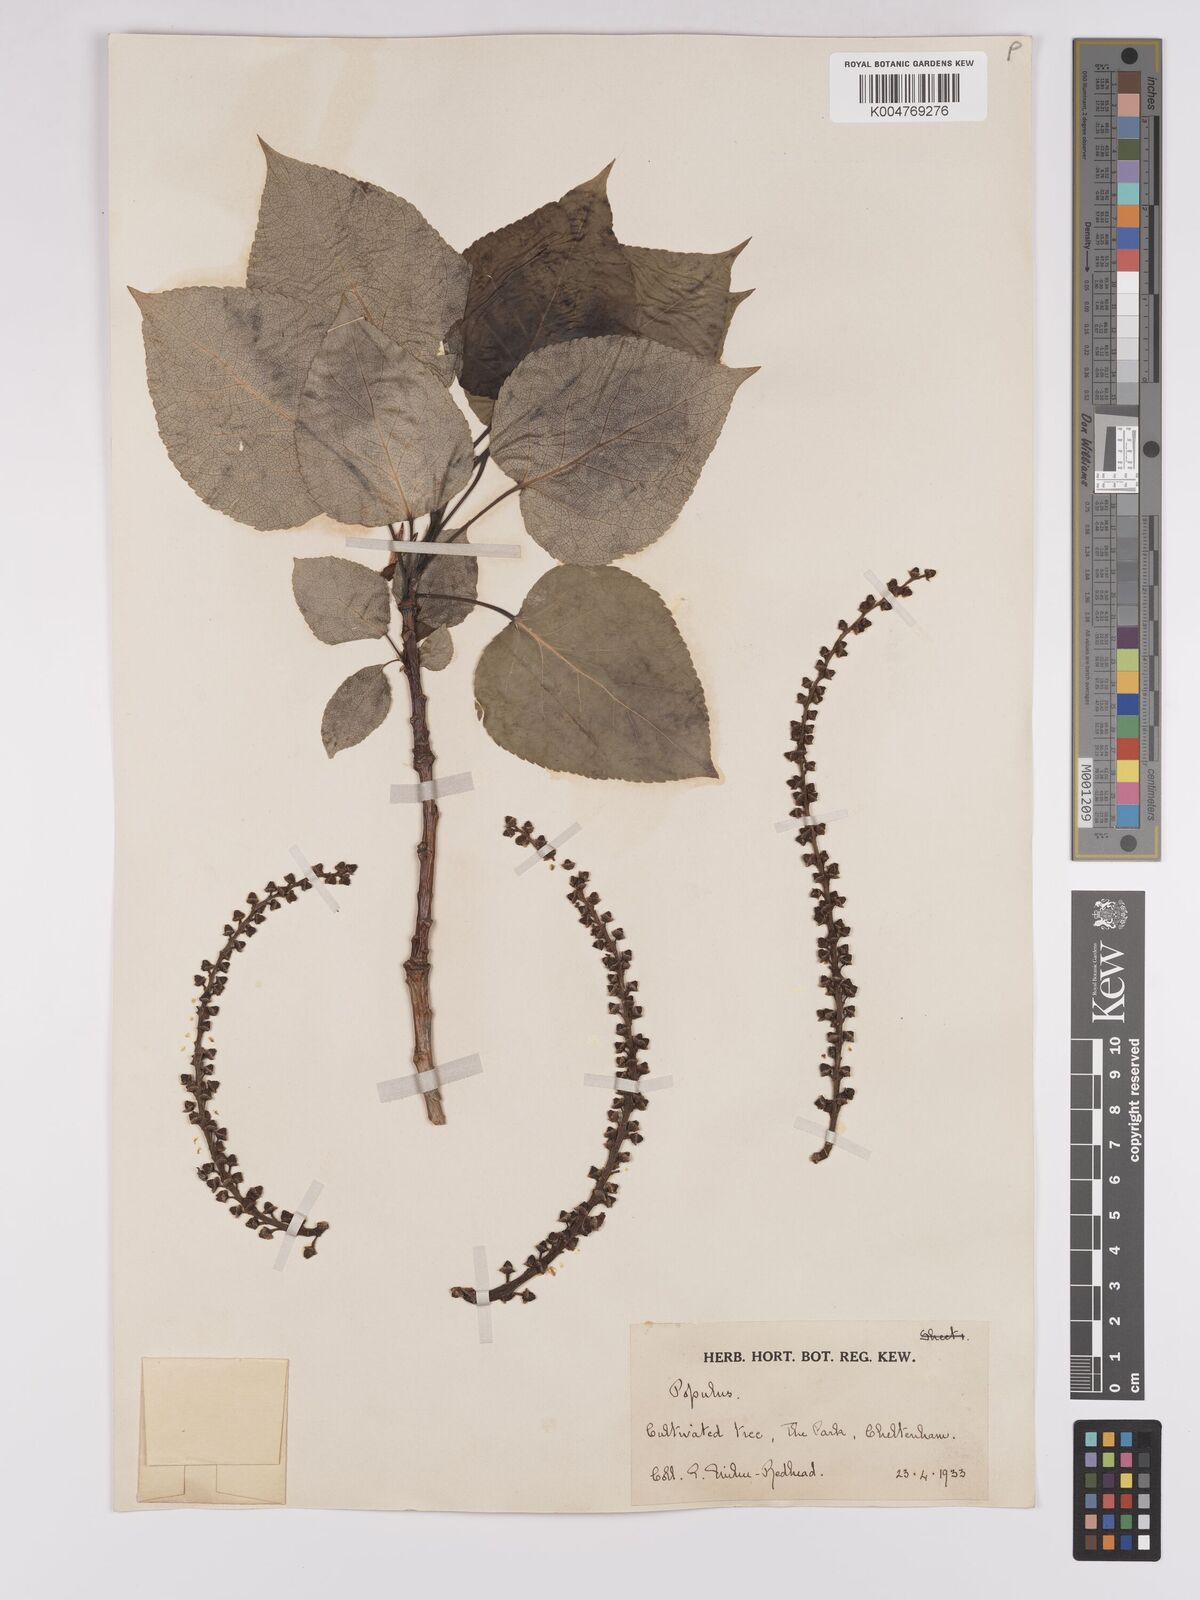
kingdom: Plantae
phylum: Tracheophyta
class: Magnoliopsida
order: Malpighiales
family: Salicaceae
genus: Populus
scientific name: Populus jackii
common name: Balm-of-gilead
